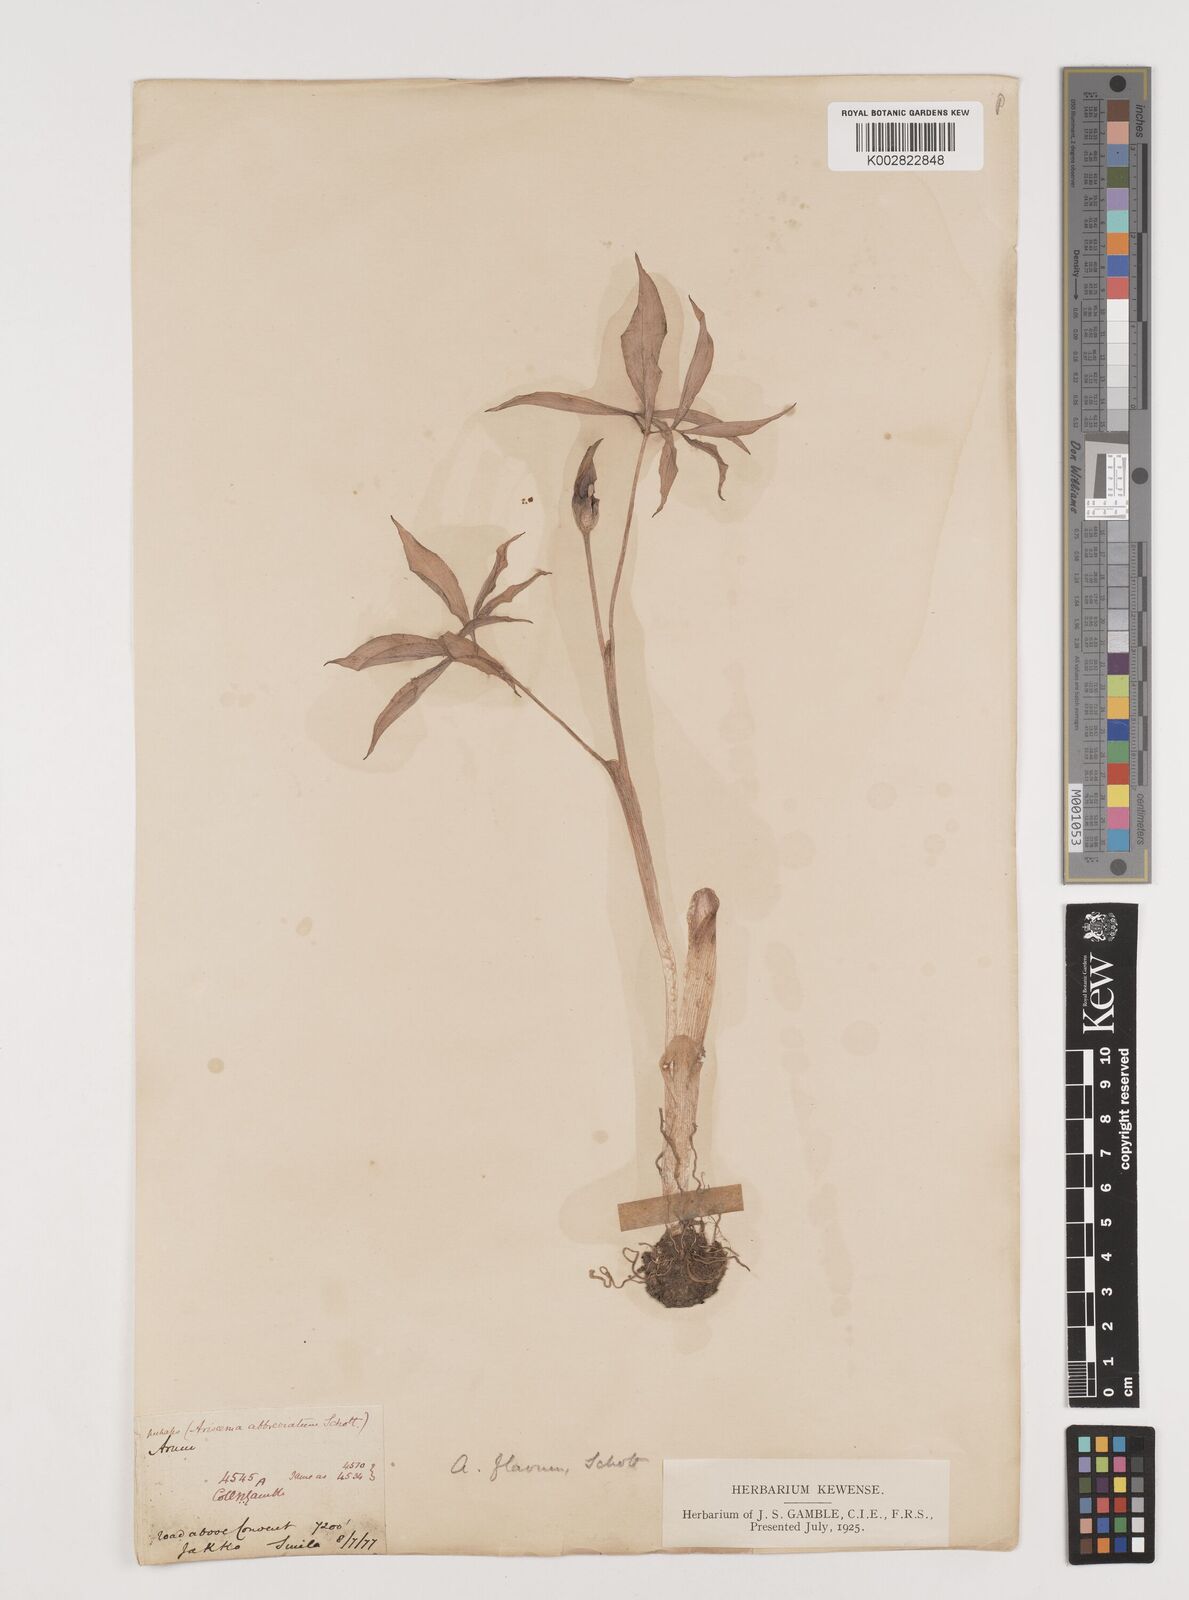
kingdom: Plantae
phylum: Tracheophyta
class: Liliopsida
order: Alismatales
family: Araceae
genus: Arisaema
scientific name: Arisaema flavum
